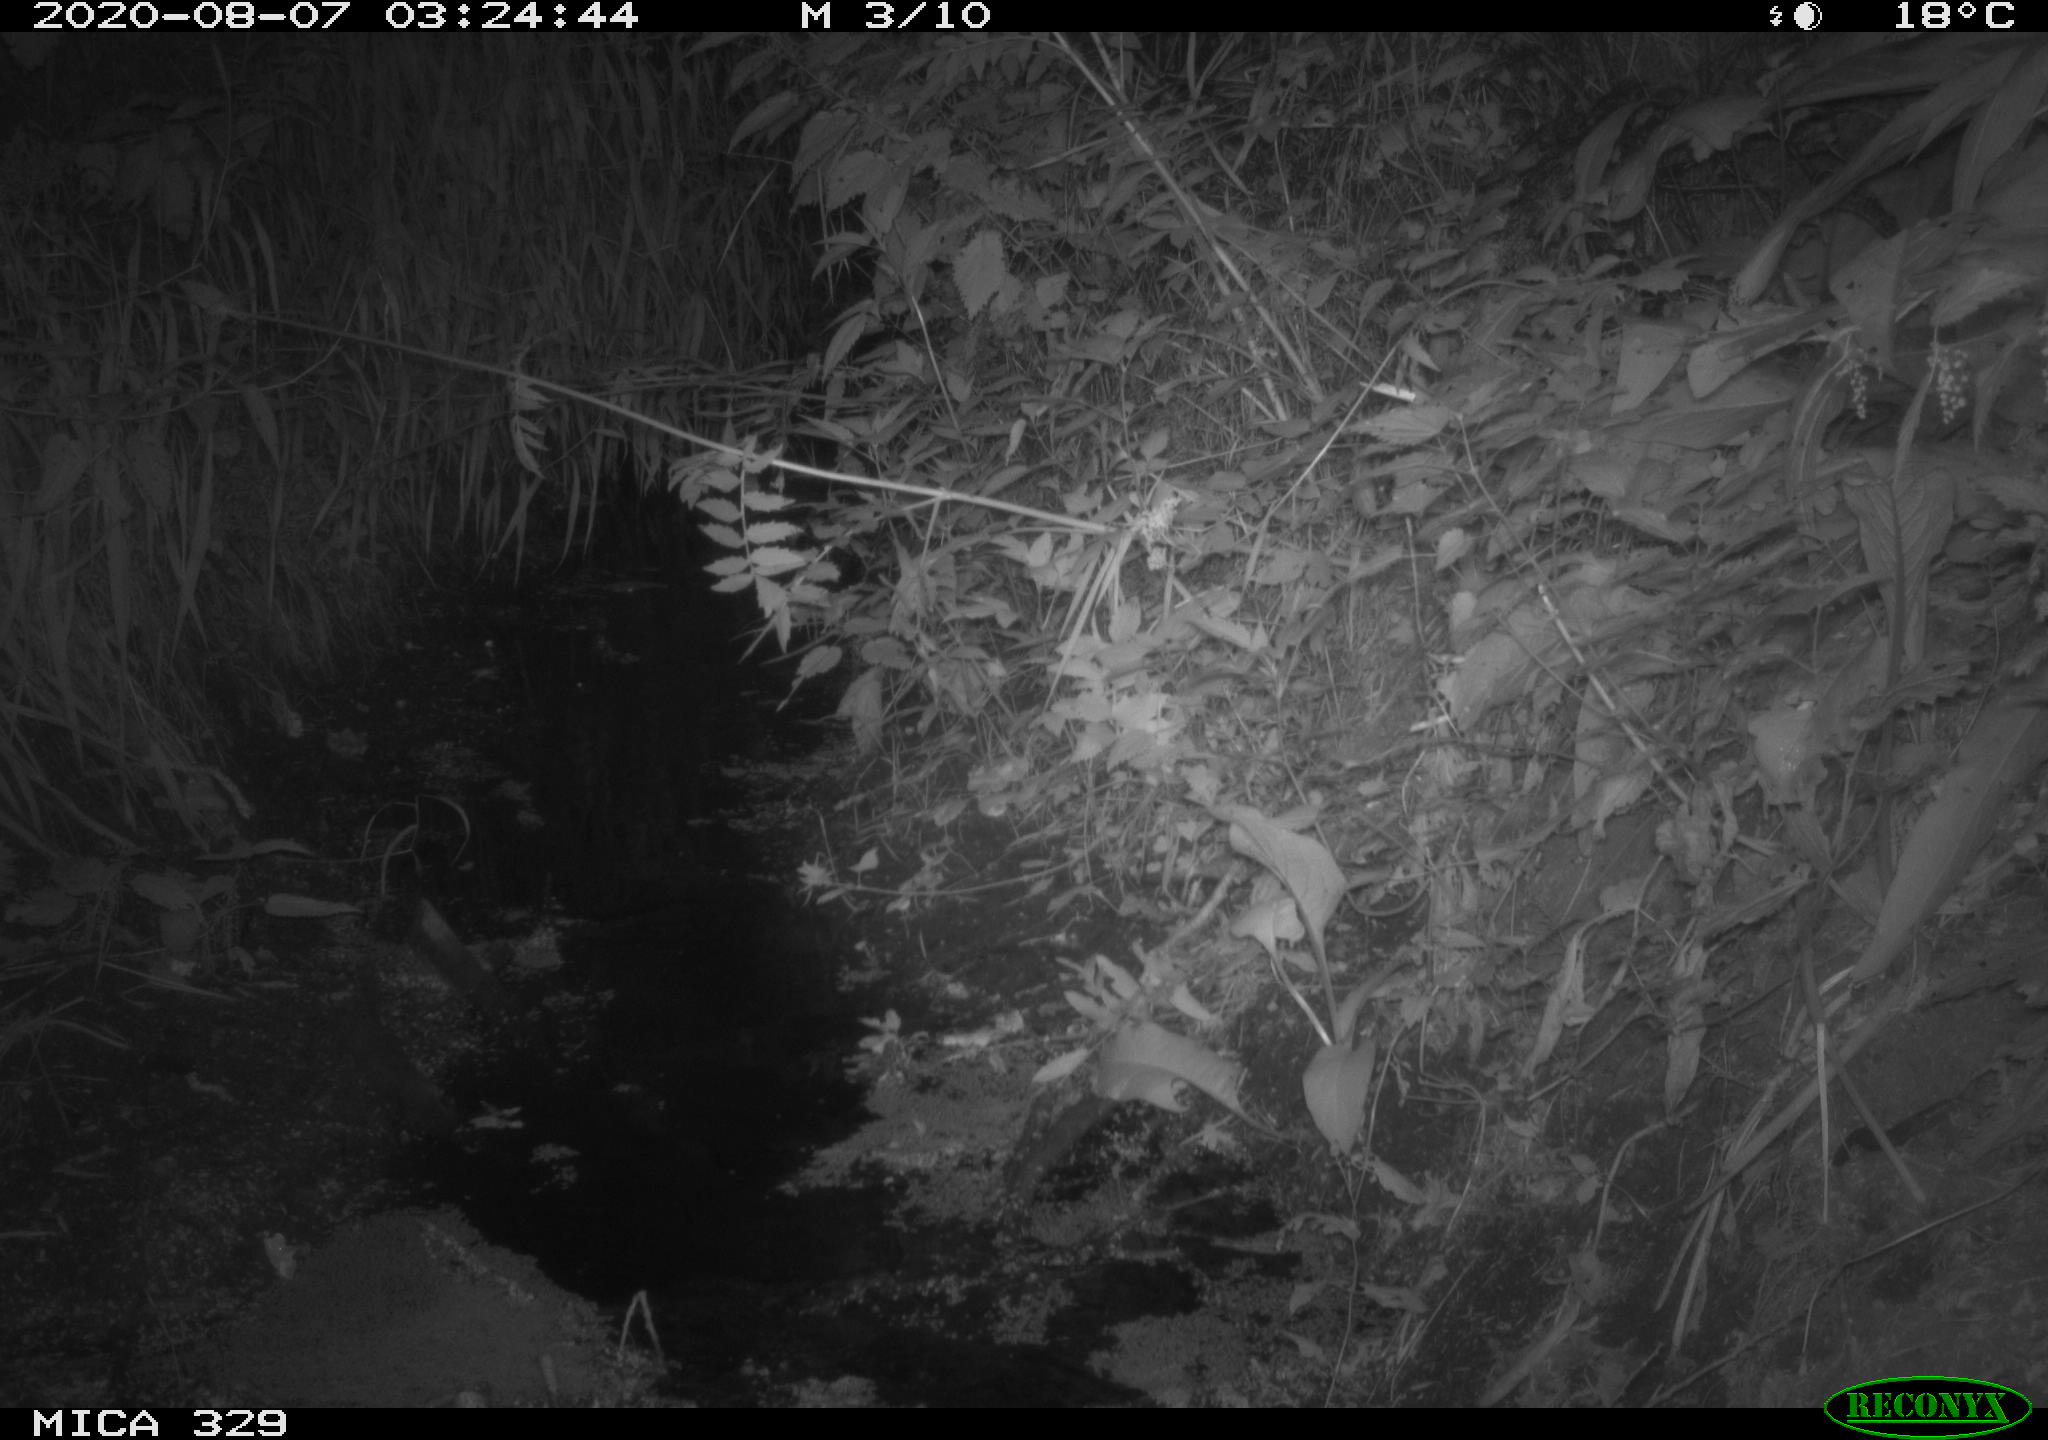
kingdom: Animalia
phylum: Chordata
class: Mammalia
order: Rodentia
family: Muridae
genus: Rattus
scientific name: Rattus norvegicus
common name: Brown rat
